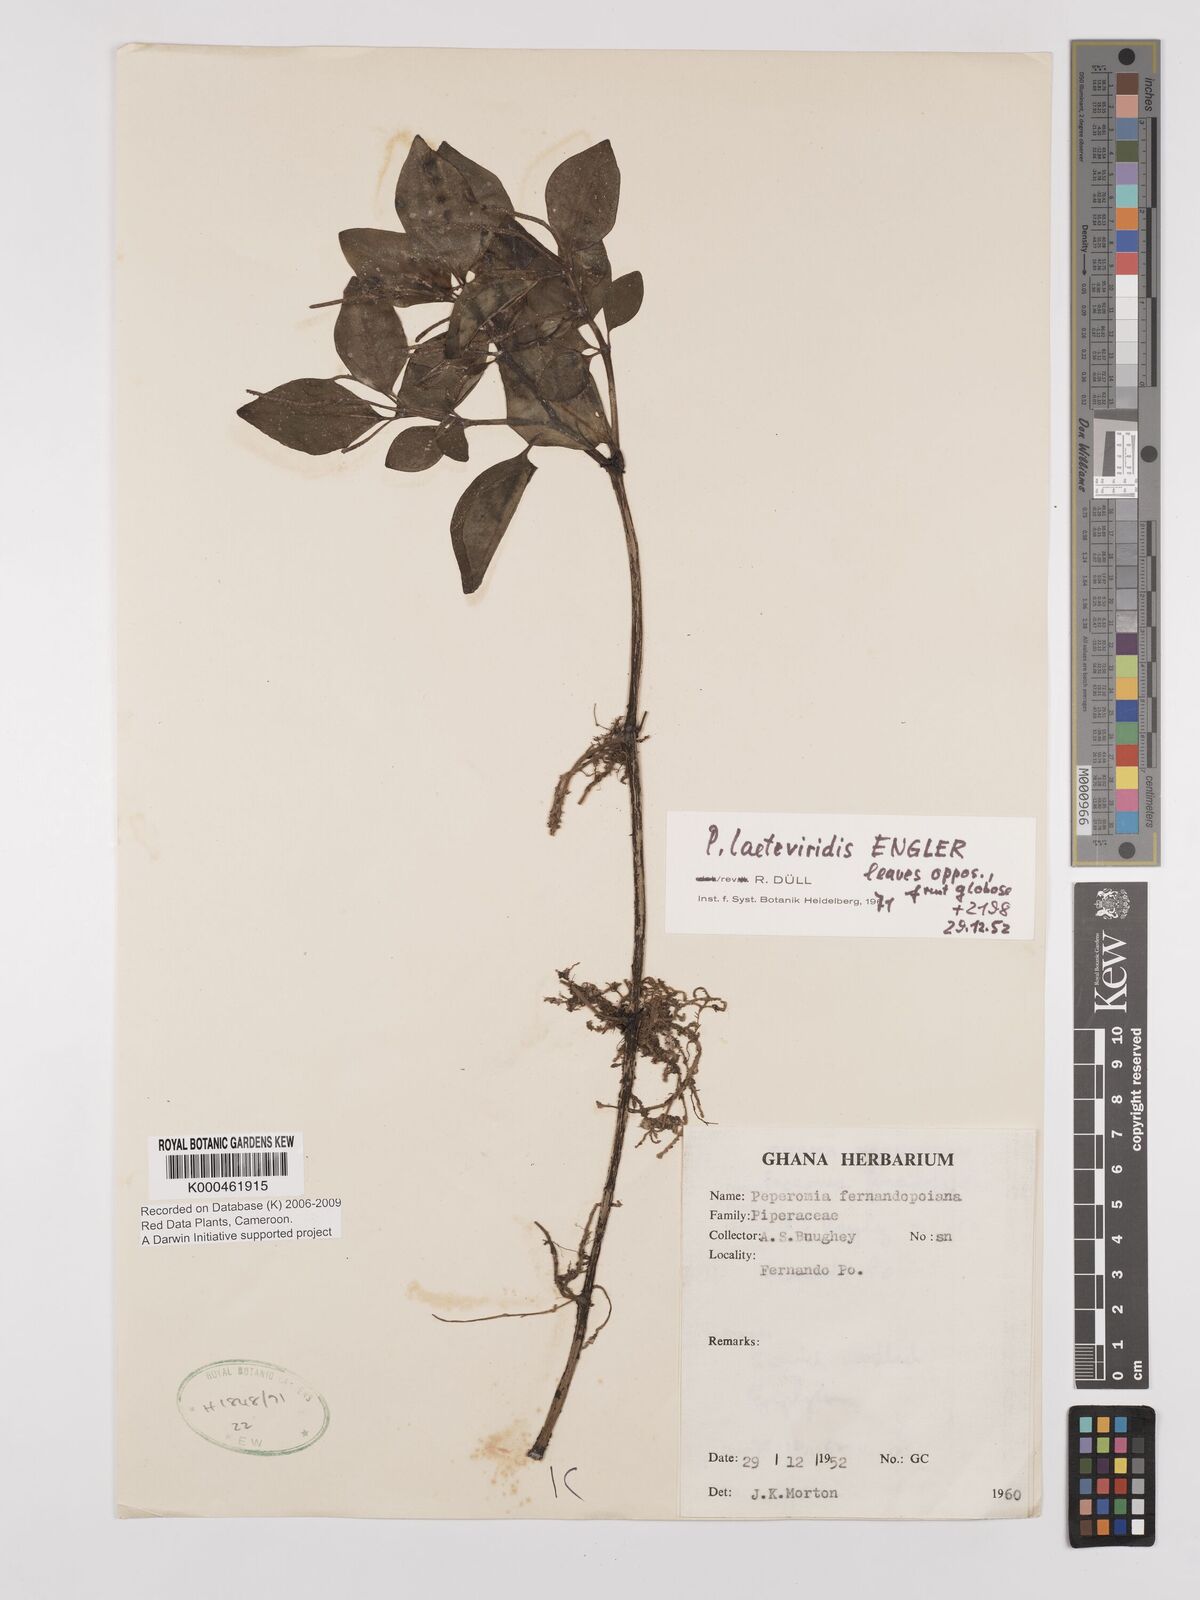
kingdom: Plantae
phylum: Tracheophyta
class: Magnoliopsida
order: Piperales
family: Piperaceae
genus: Peperomia
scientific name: Peperomia laeteviridis
